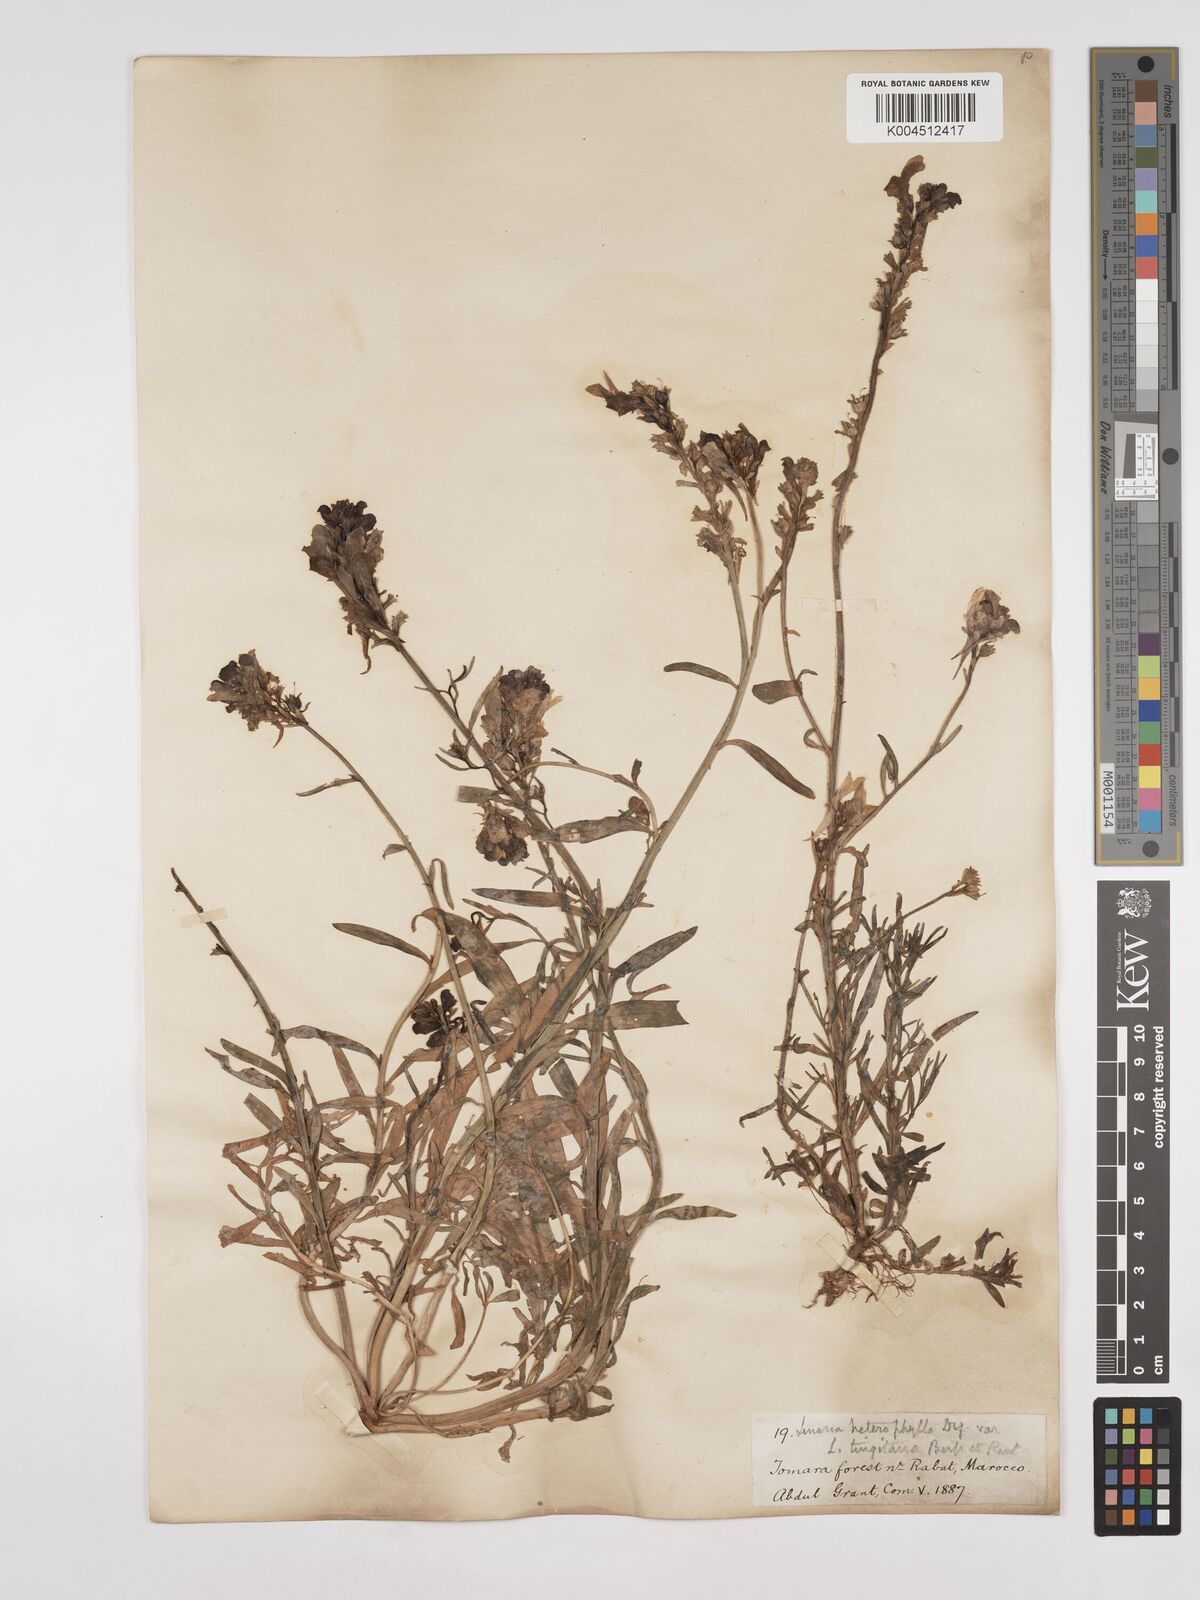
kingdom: Plantae
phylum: Tracheophyta
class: Magnoliopsida
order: Lamiales
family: Plantaginaceae
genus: Linaria
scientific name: Linaria multicaulis
